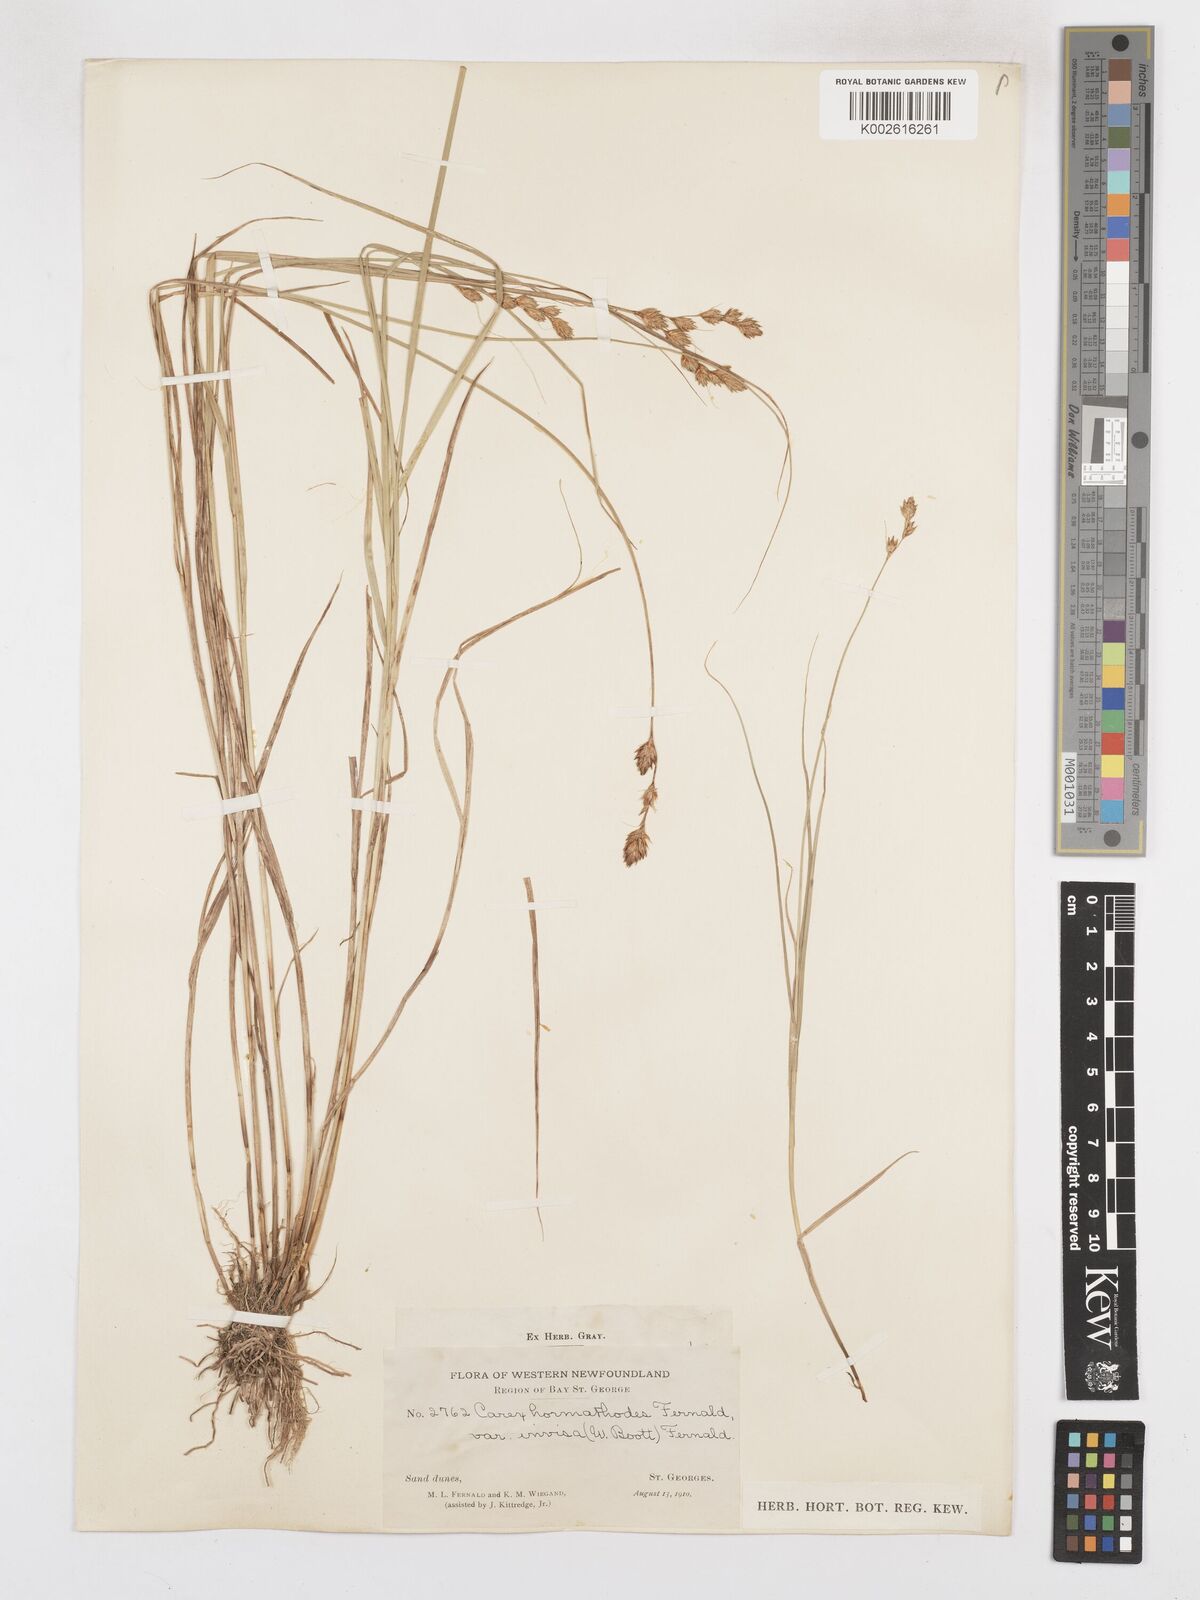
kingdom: Plantae
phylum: Tracheophyta
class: Liliopsida
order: Poales
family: Cyperaceae
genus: Carex
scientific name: Carex hormathodes
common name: Marsh straw sedge
